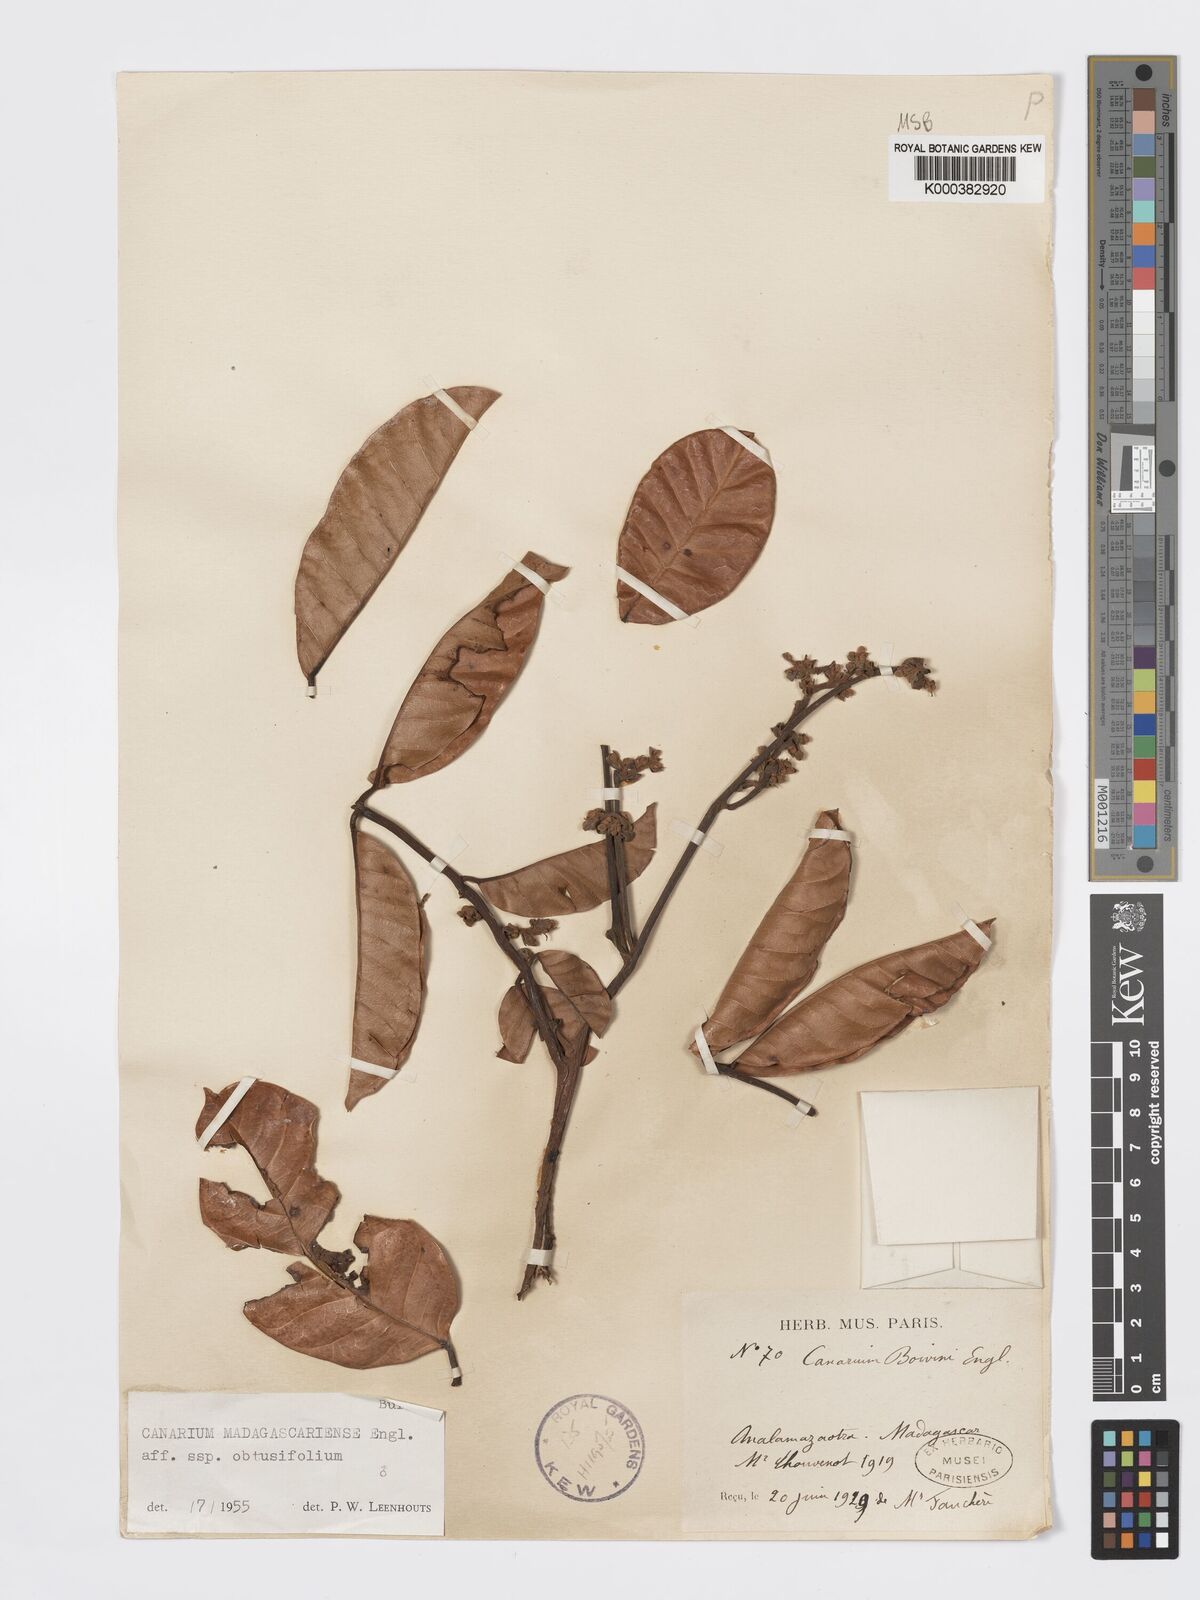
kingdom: Plantae
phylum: Tracheophyta
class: Magnoliopsida
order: Sapindales
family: Burseraceae
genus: Canarium
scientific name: Canarium madagascariense
